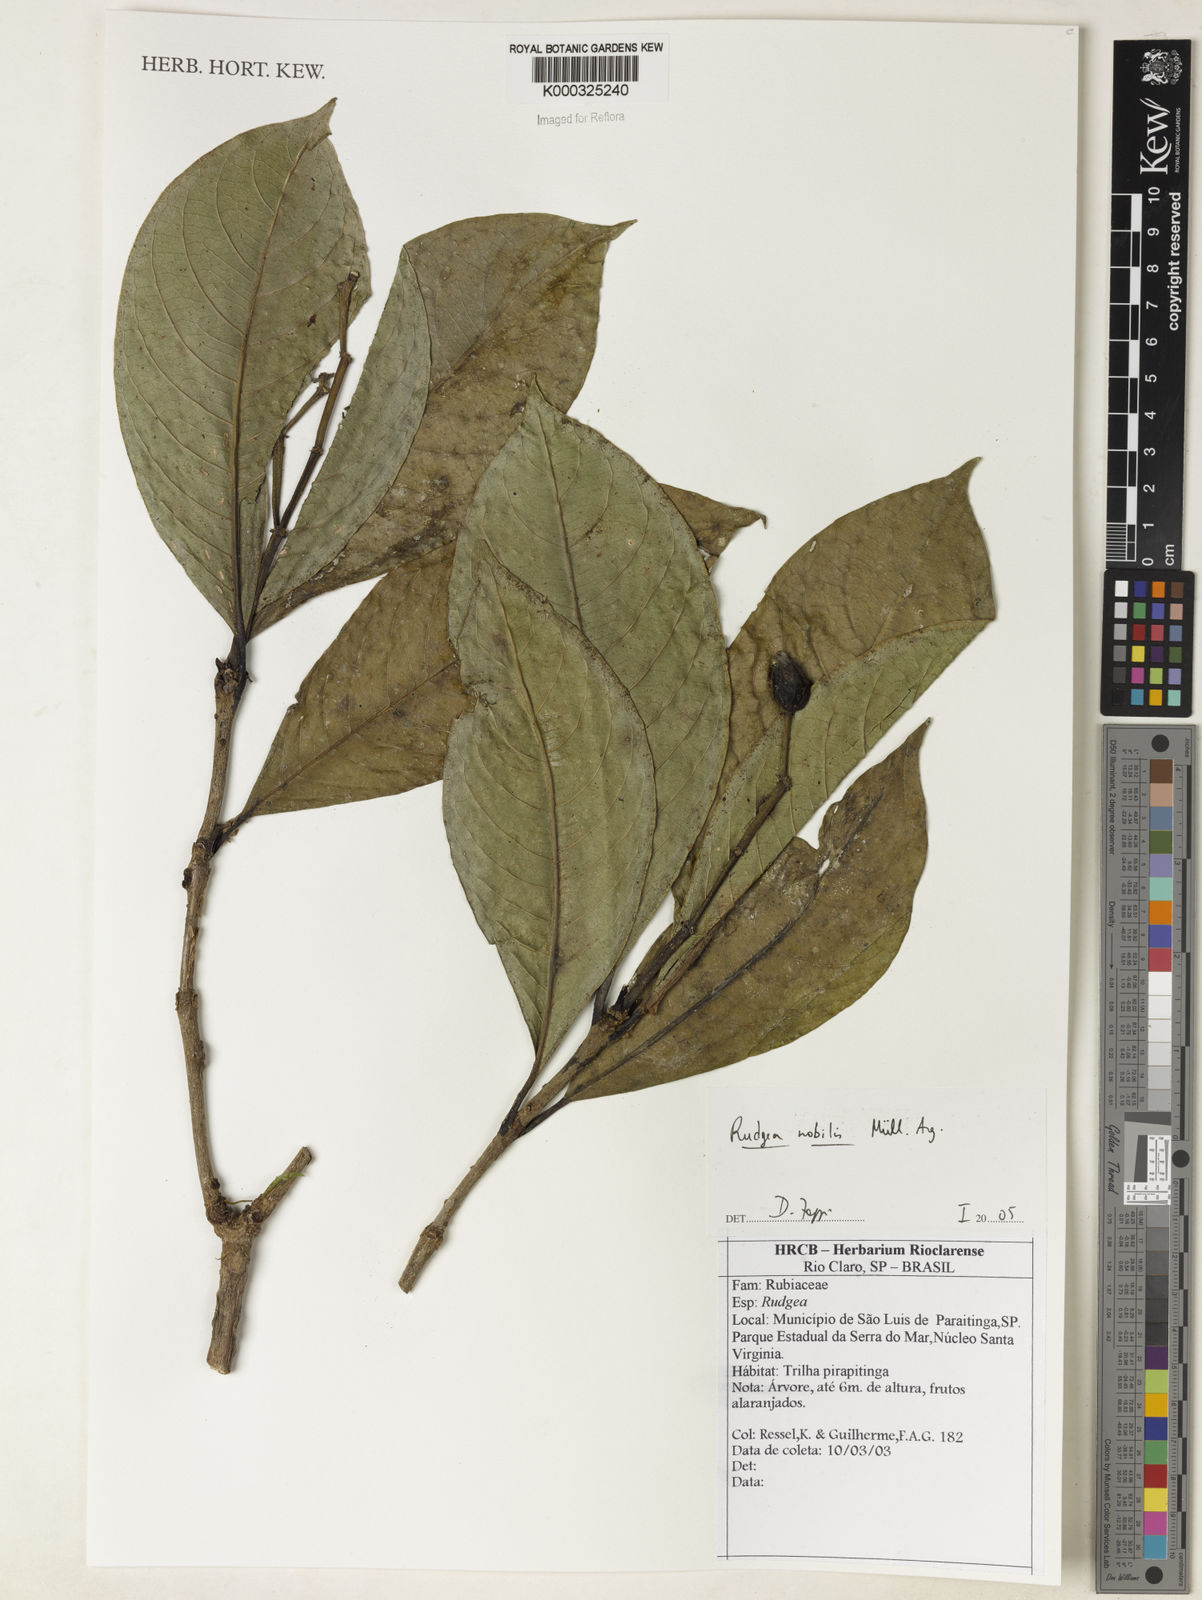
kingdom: Plantae
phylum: Tracheophyta
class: Magnoliopsida
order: Gentianales
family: Rubiaceae
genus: Rudgea
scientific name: Rudgea nobilis
